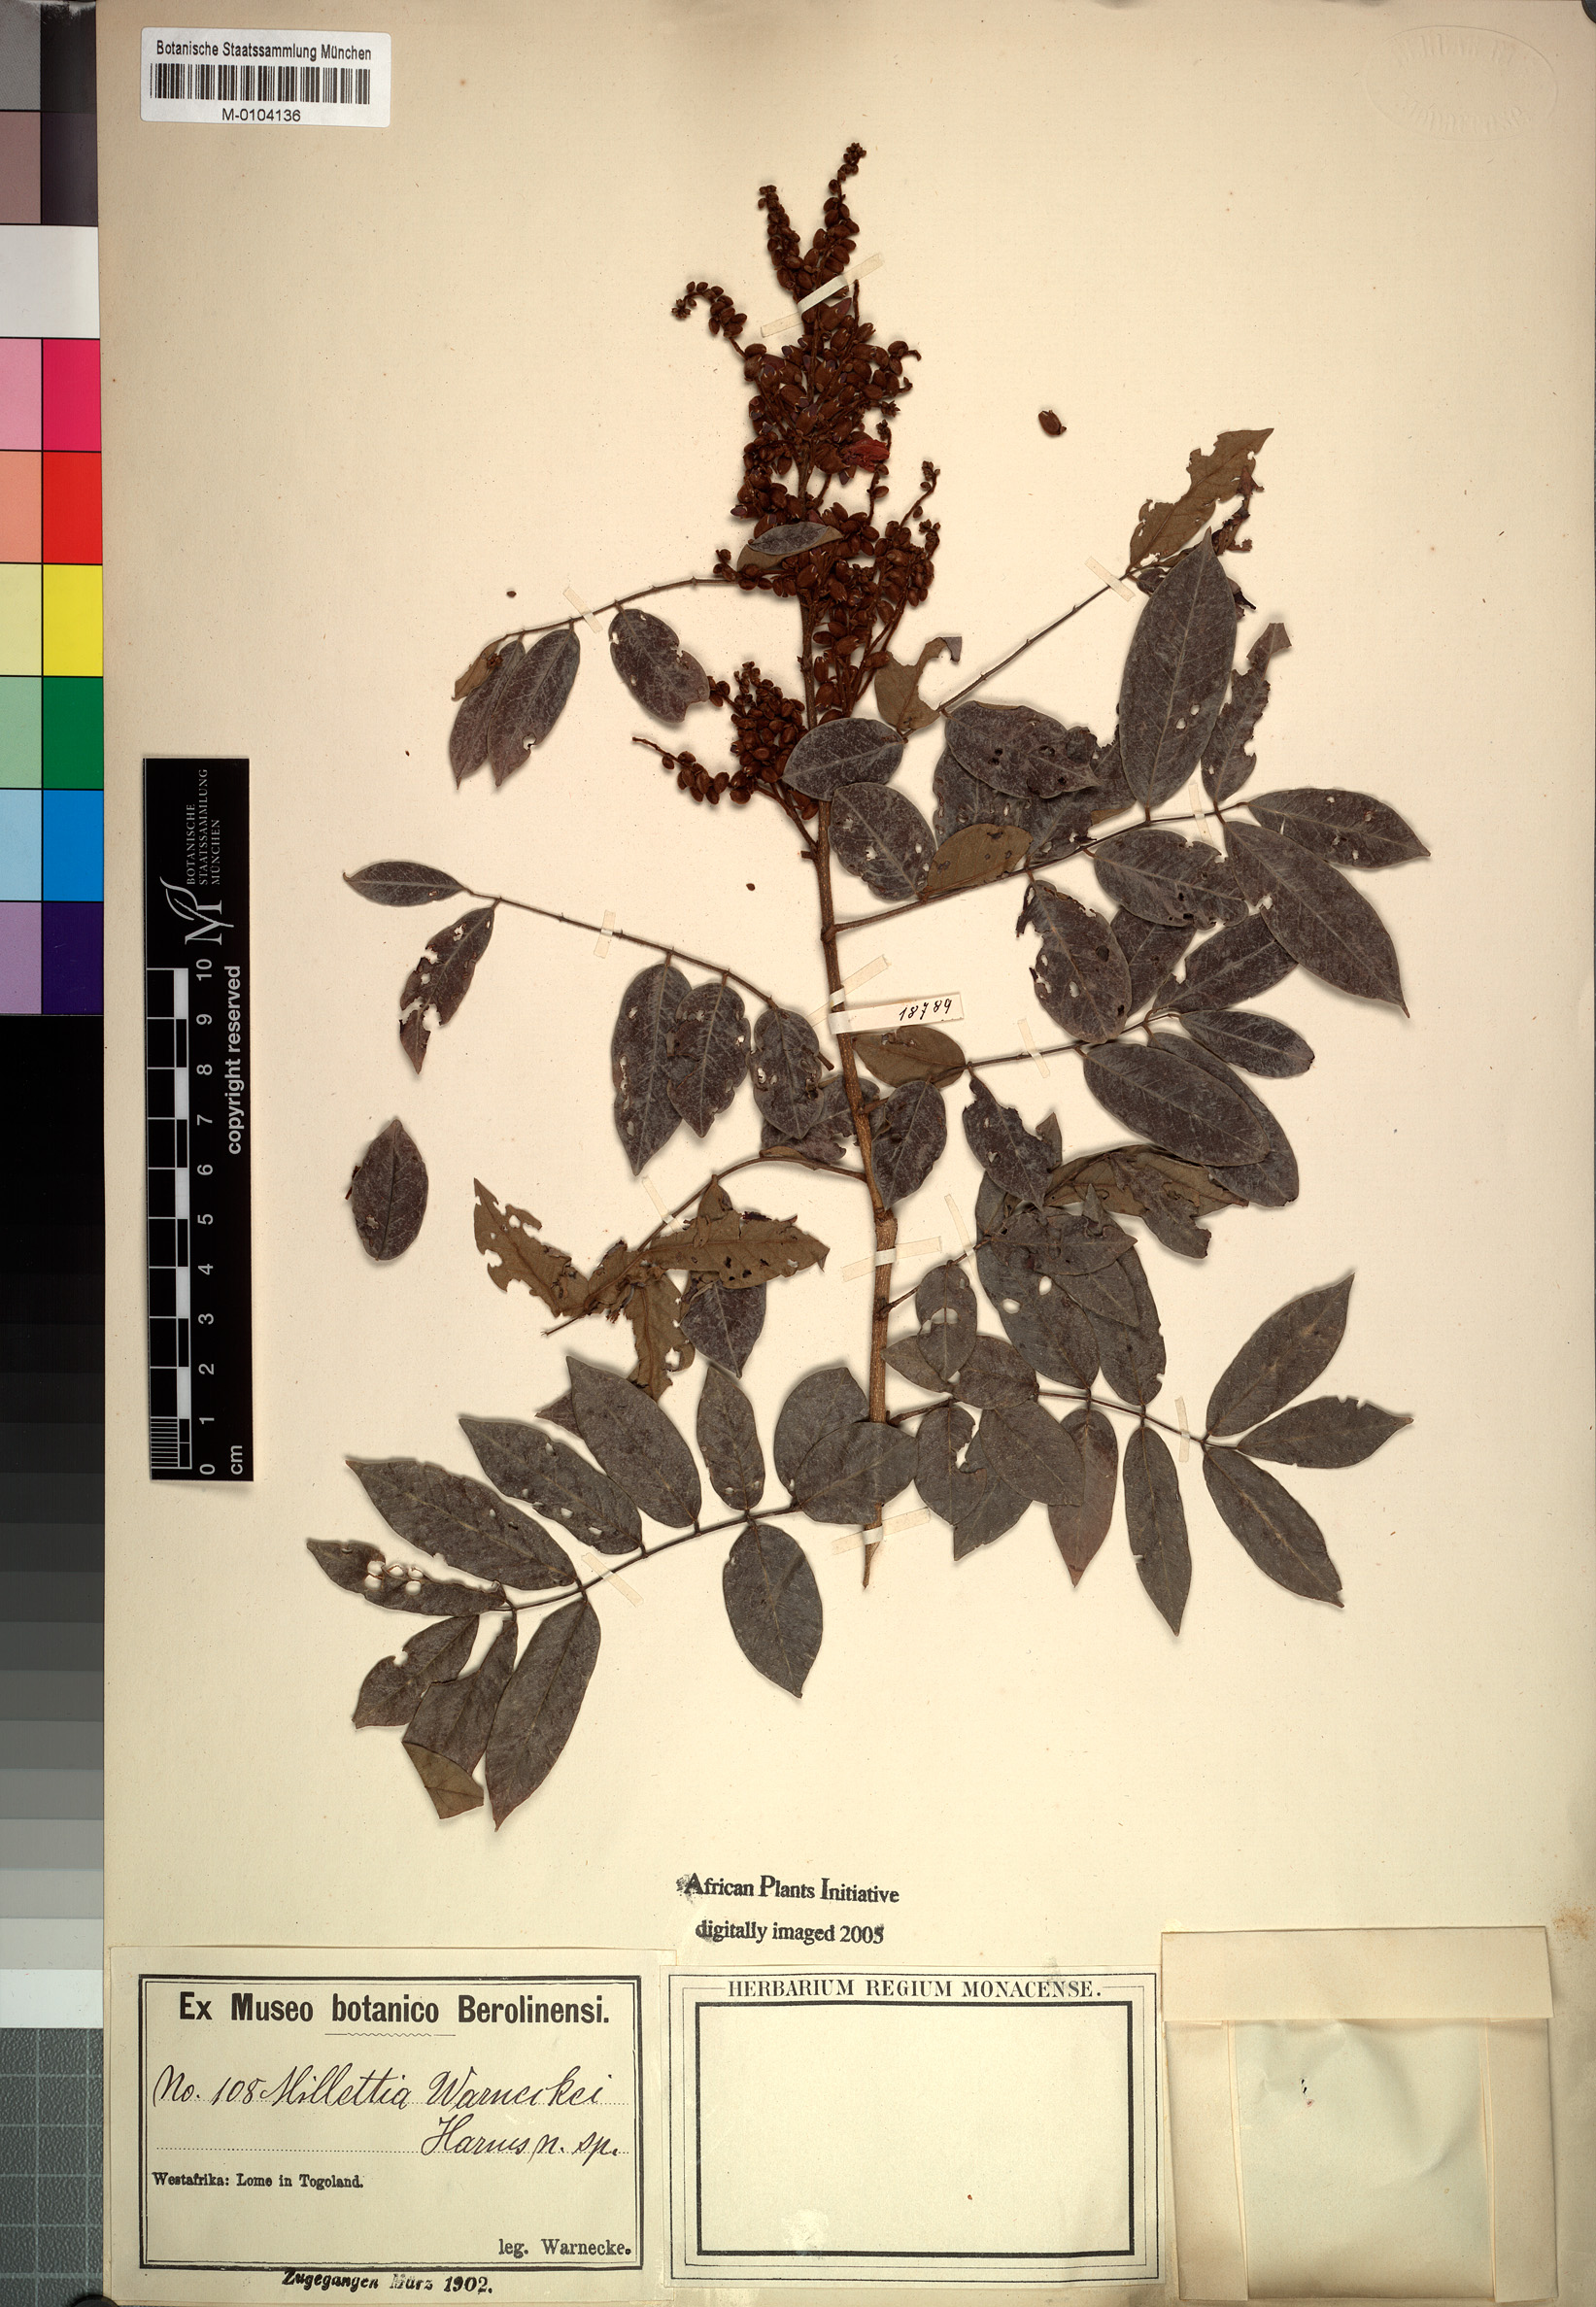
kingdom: Plantae
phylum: Tracheophyta
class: Magnoliopsida
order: Fabales
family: Fabaceae
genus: Millettia
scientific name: Millettia warneckei
